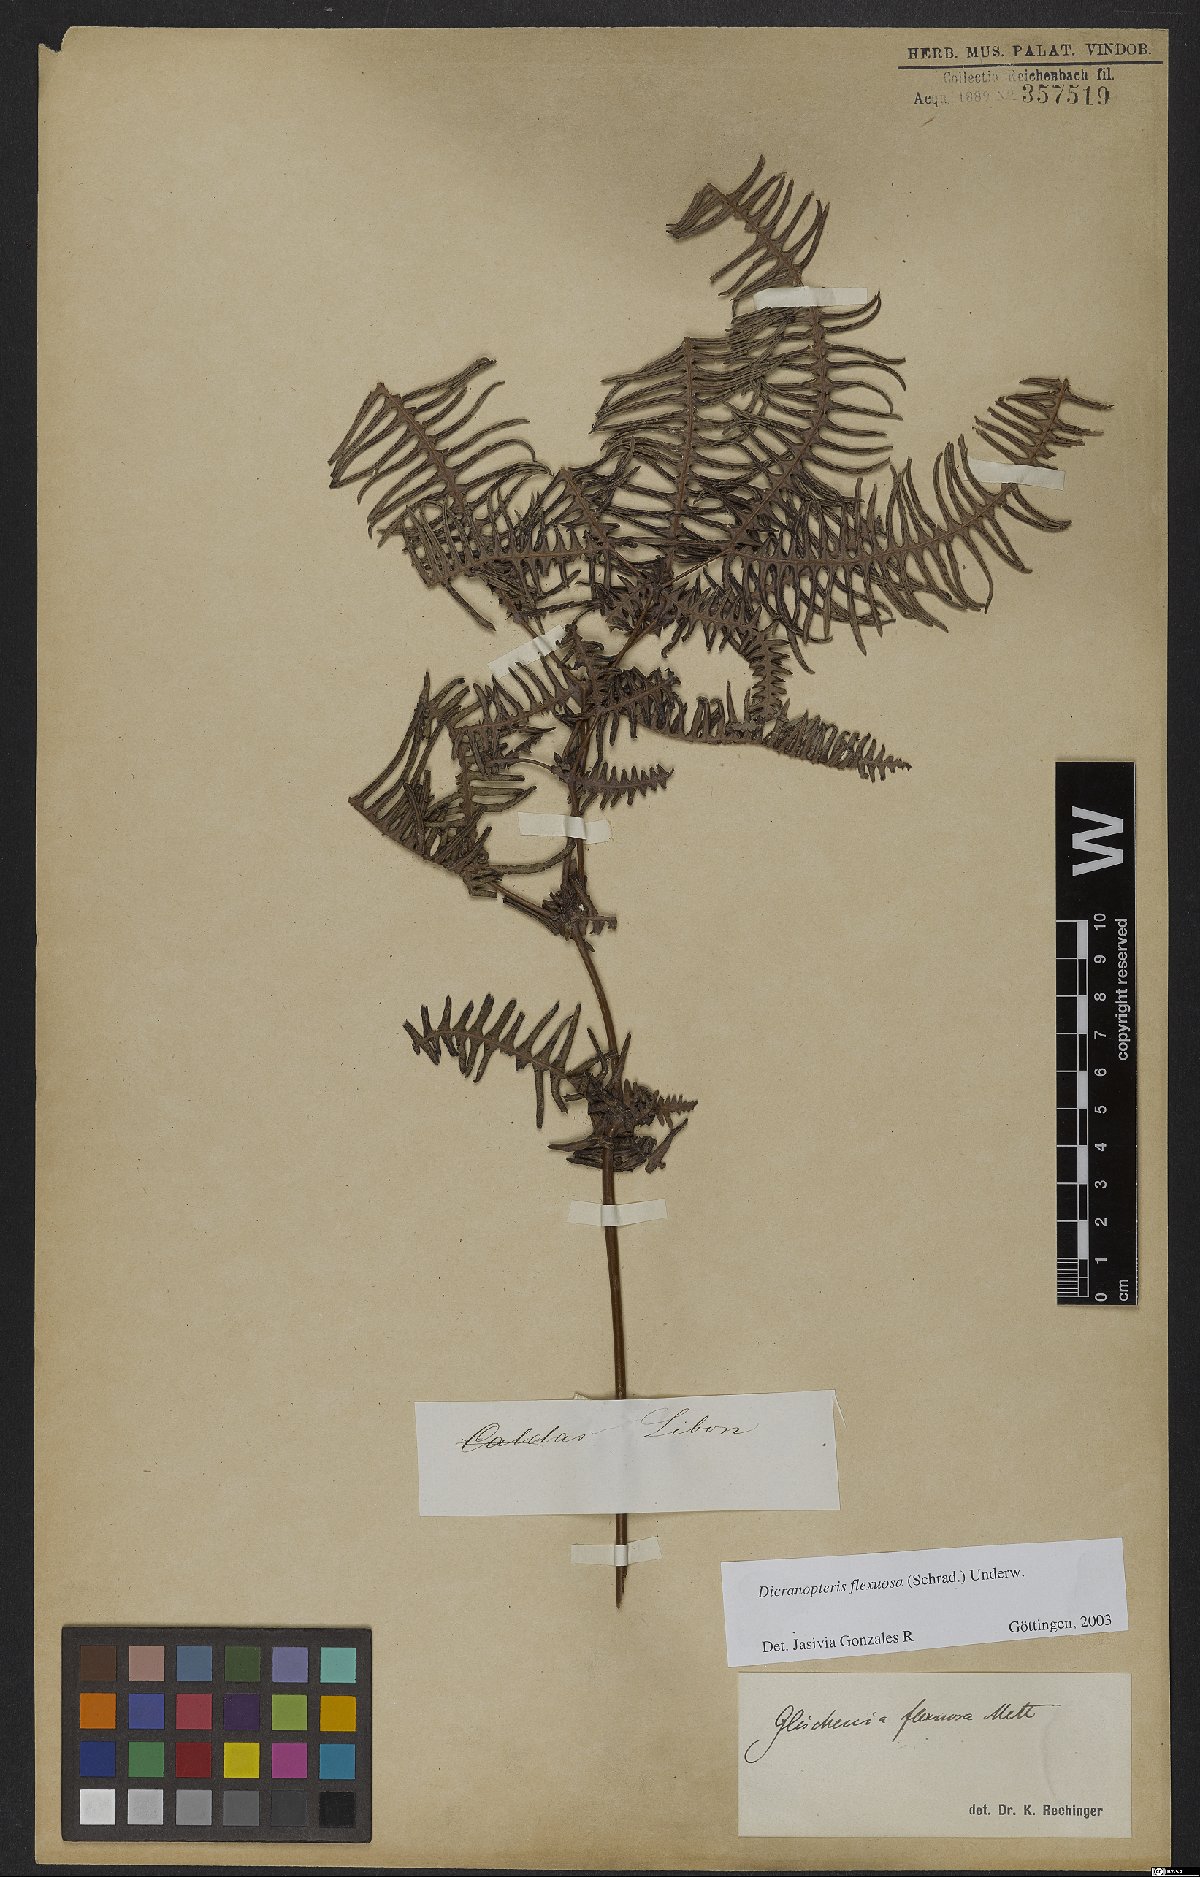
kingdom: Plantae
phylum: Tracheophyta
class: Polypodiopsida
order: Gleicheniales
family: Gleicheniaceae
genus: Dicranopteris
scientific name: Dicranopteris flexuosa
